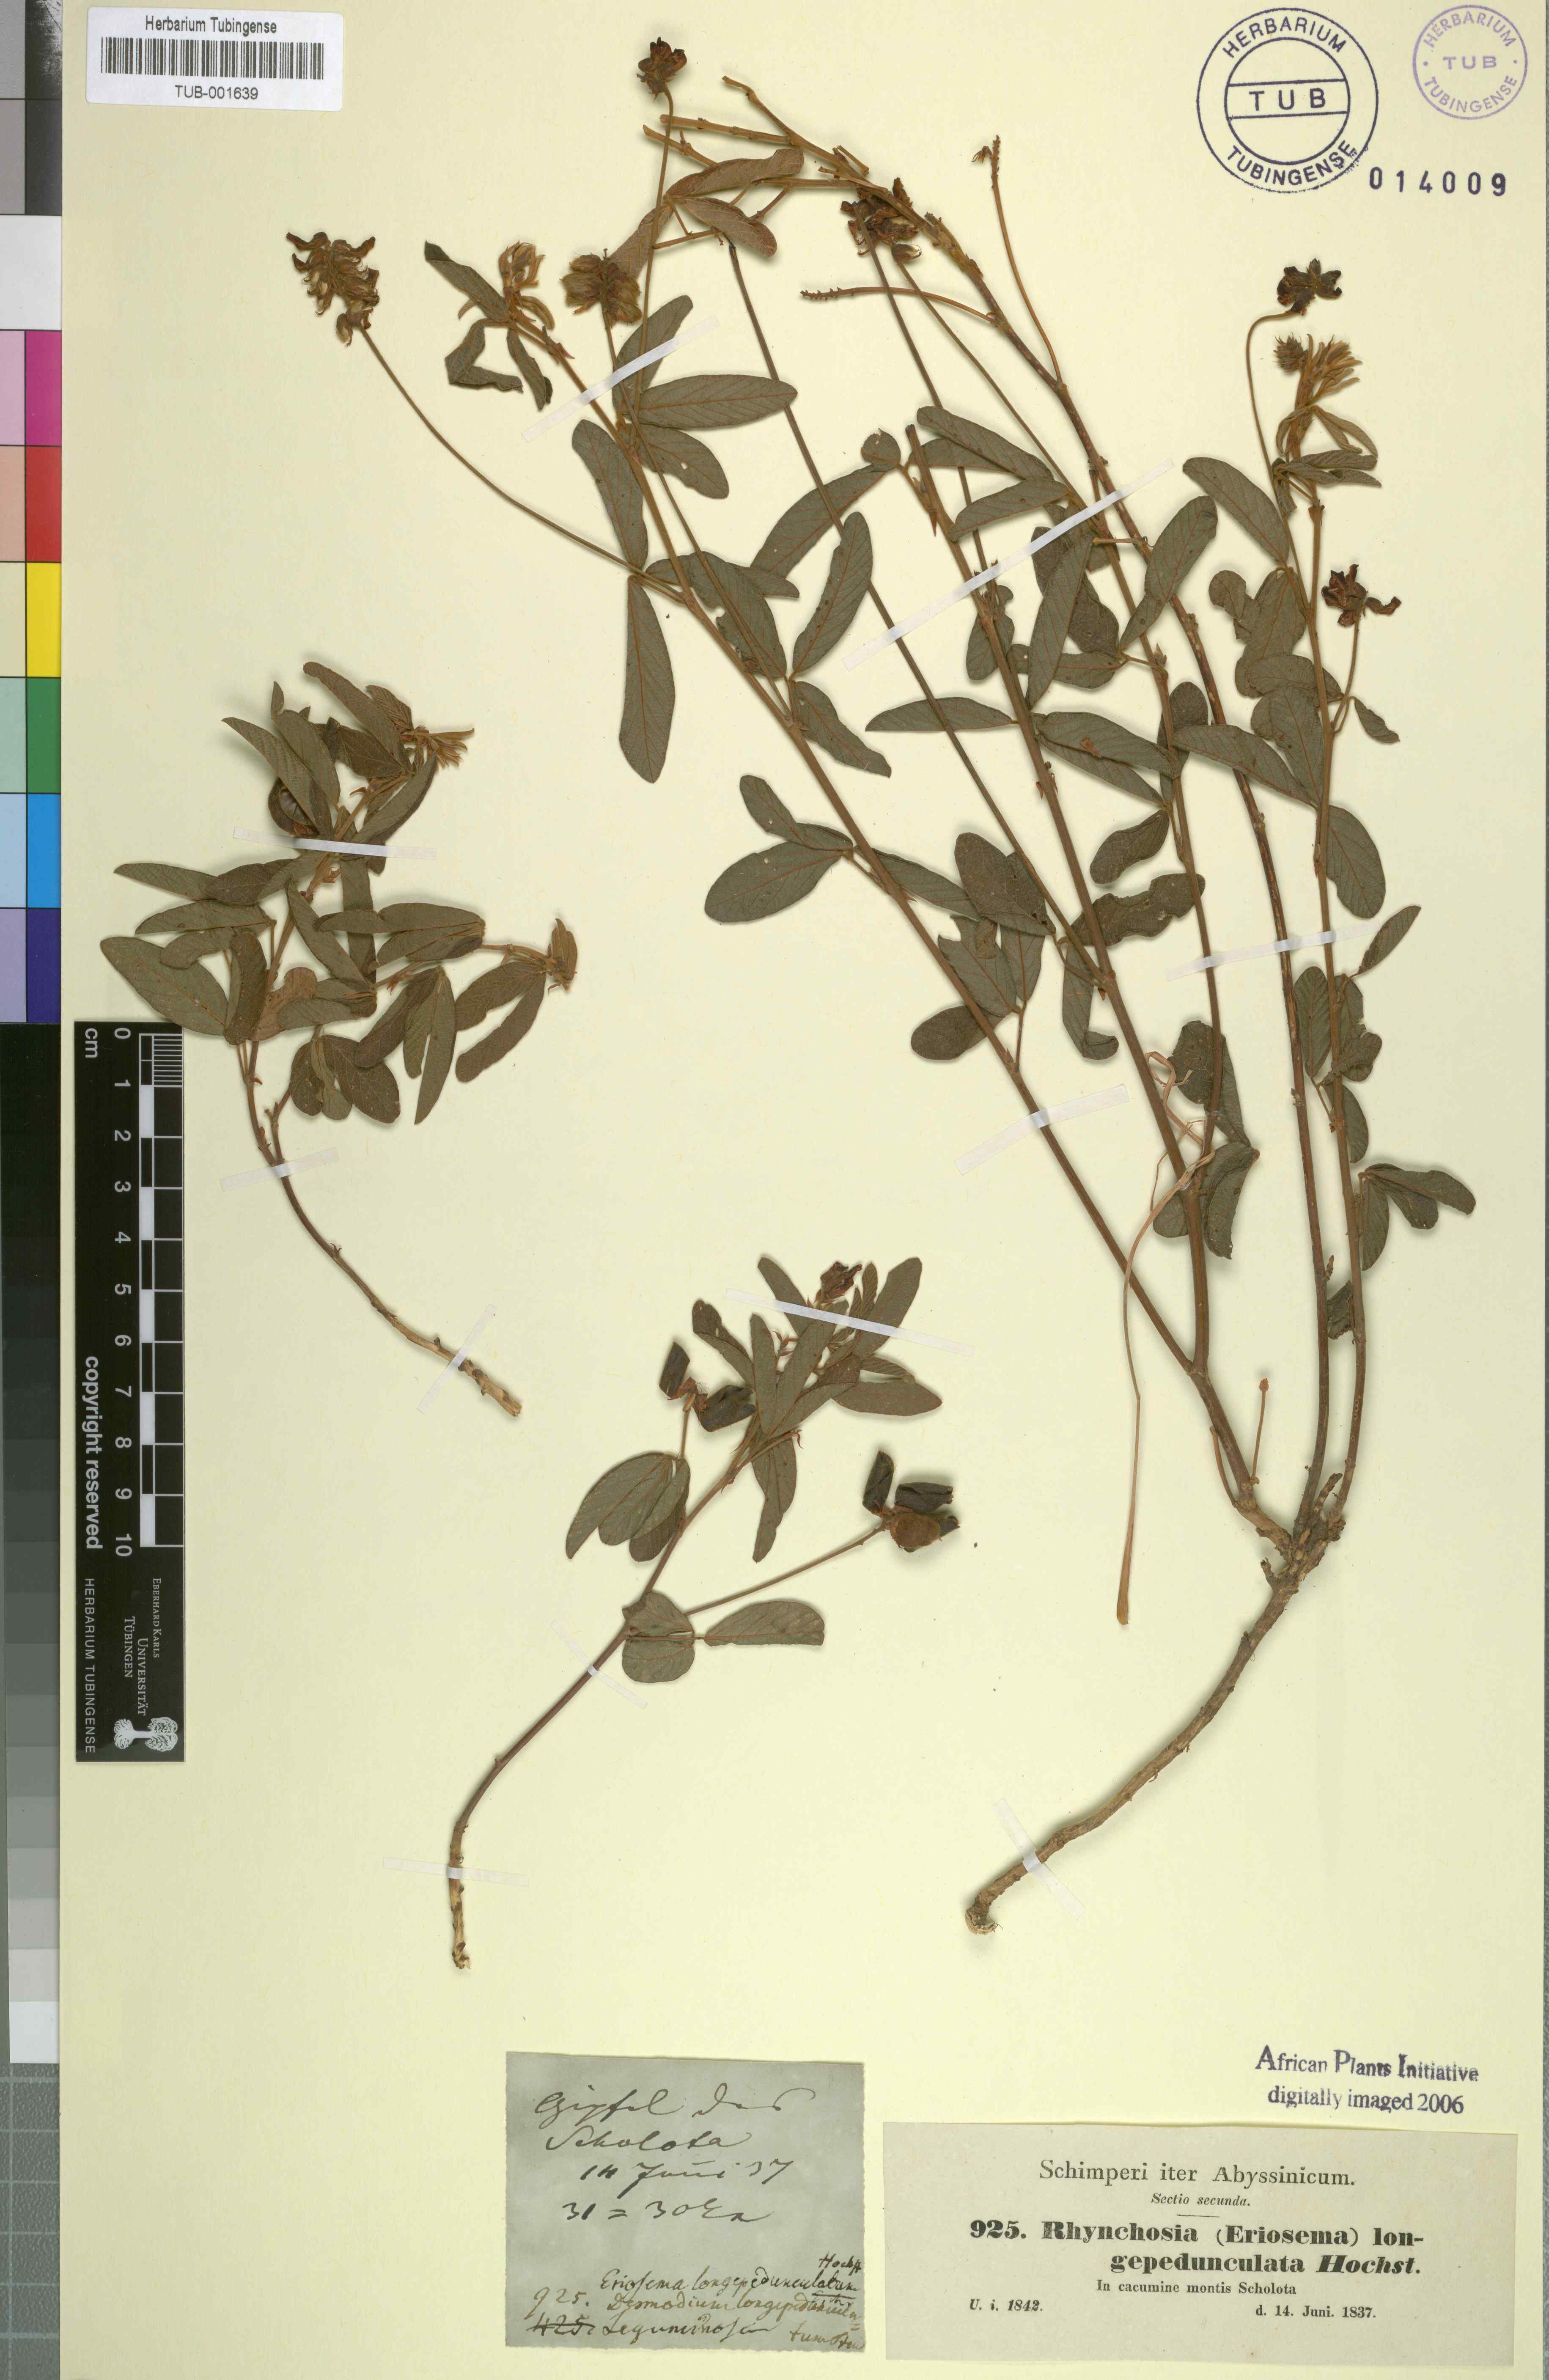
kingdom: Plantae
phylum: Tracheophyta
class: Magnoliopsida
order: Fabales
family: Fabaceae
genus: Eriosema
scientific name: Eriosema longipedunculatum
